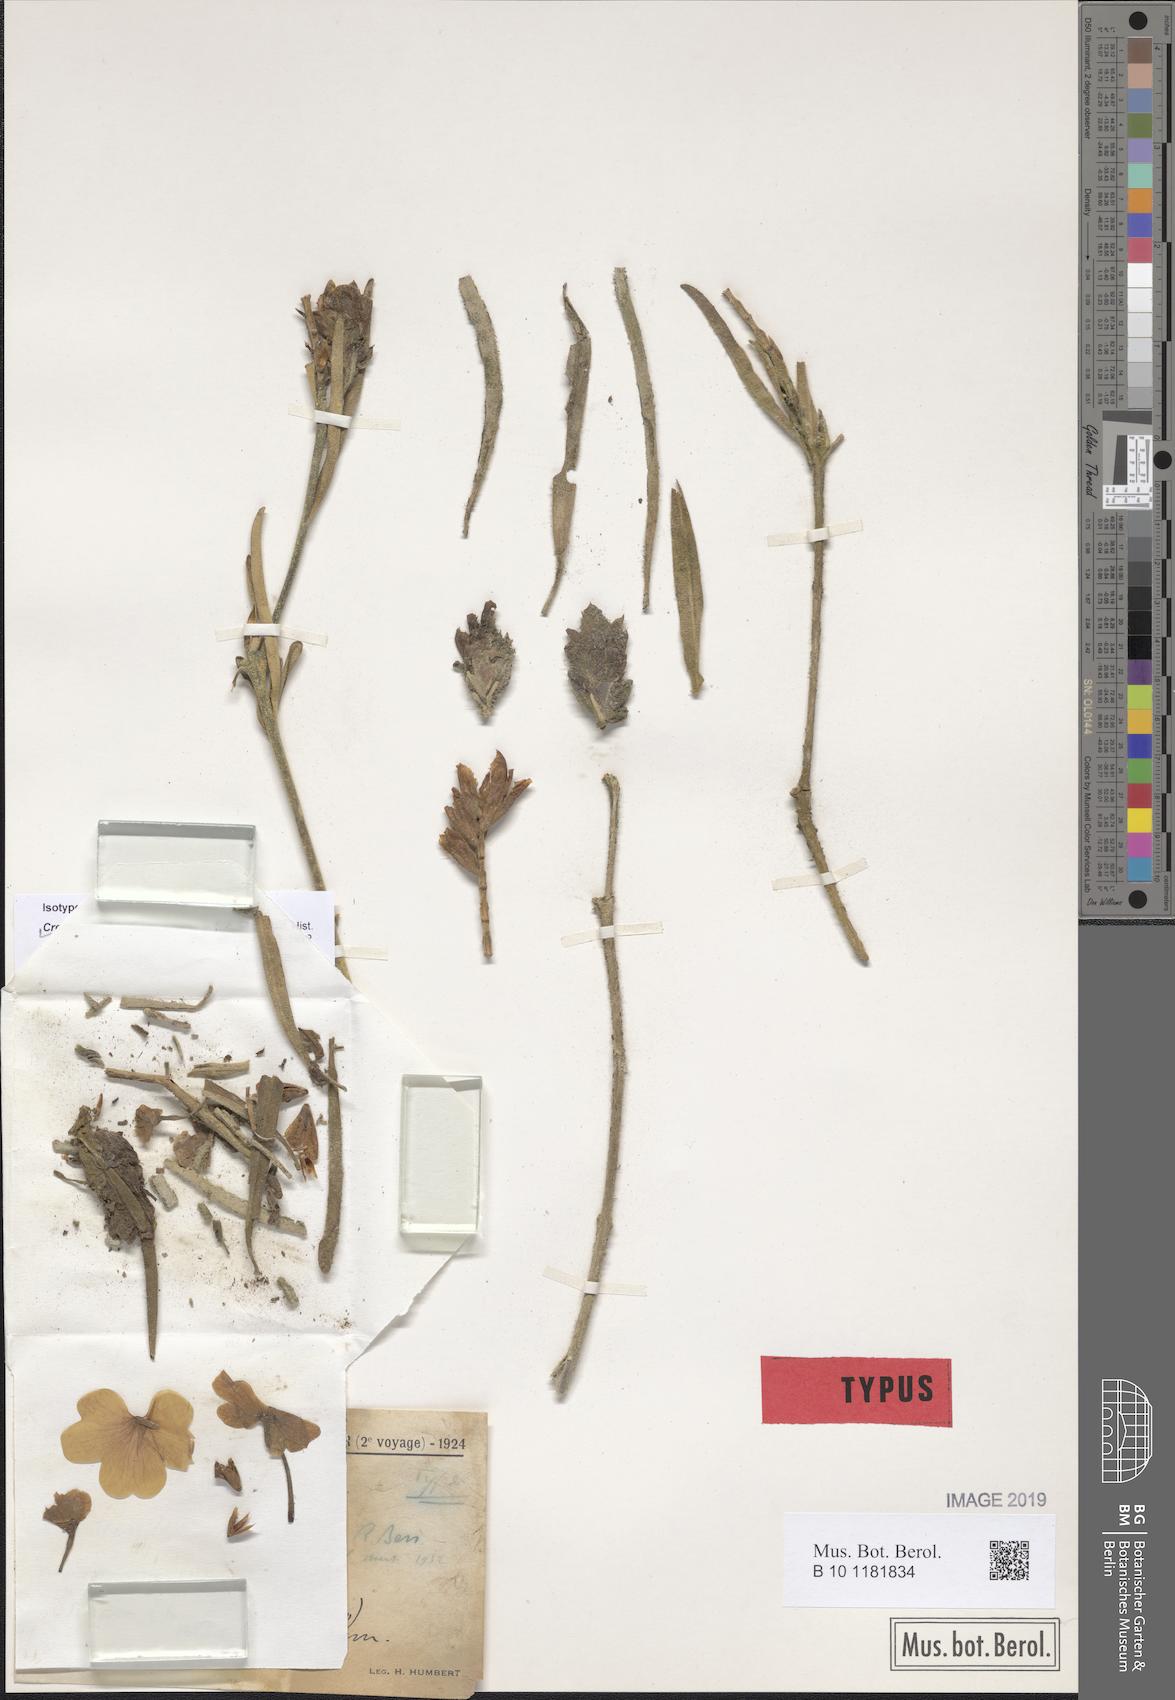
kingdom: Plantae
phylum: Tracheophyta
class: Magnoliopsida
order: Lamiales
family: Acanthaceae
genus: Crossandra
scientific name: Crossandra humbertii
